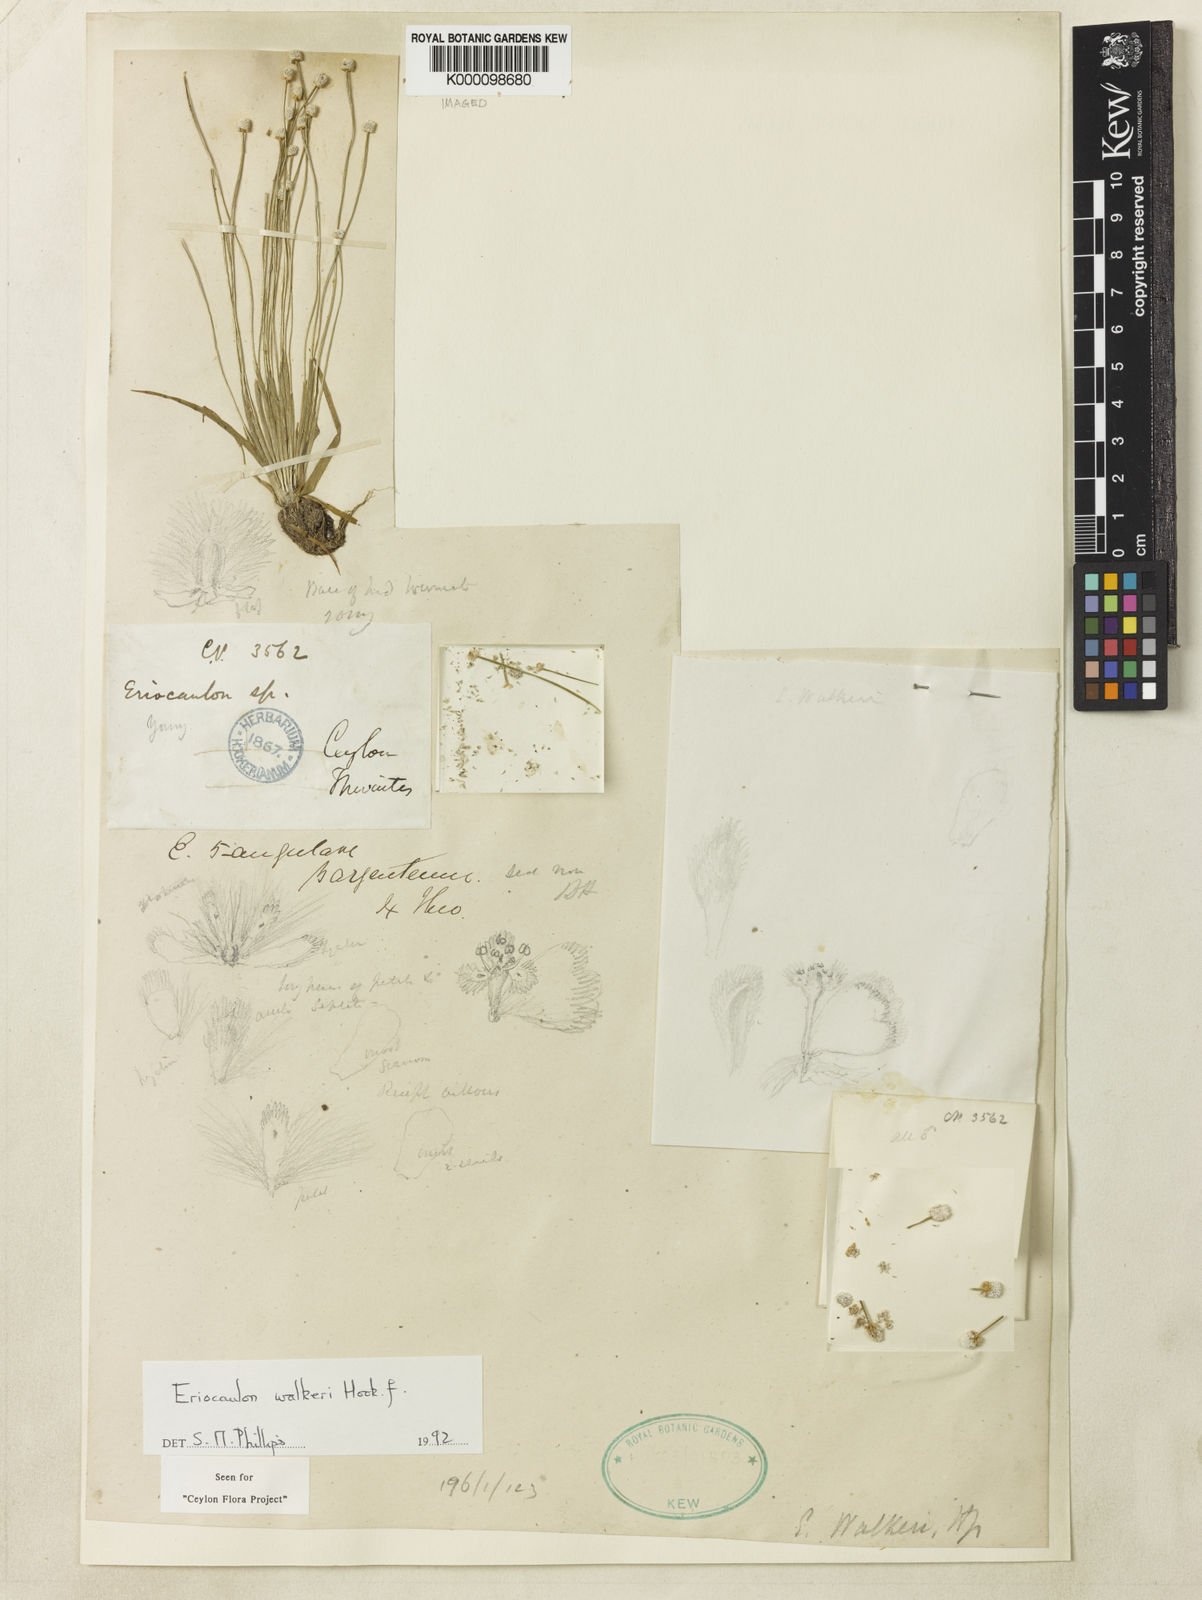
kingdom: Plantae
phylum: Tracheophyta
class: Liliopsida
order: Poales
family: Eriocaulaceae
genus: Eriocaulon
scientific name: Eriocaulon walkeri
